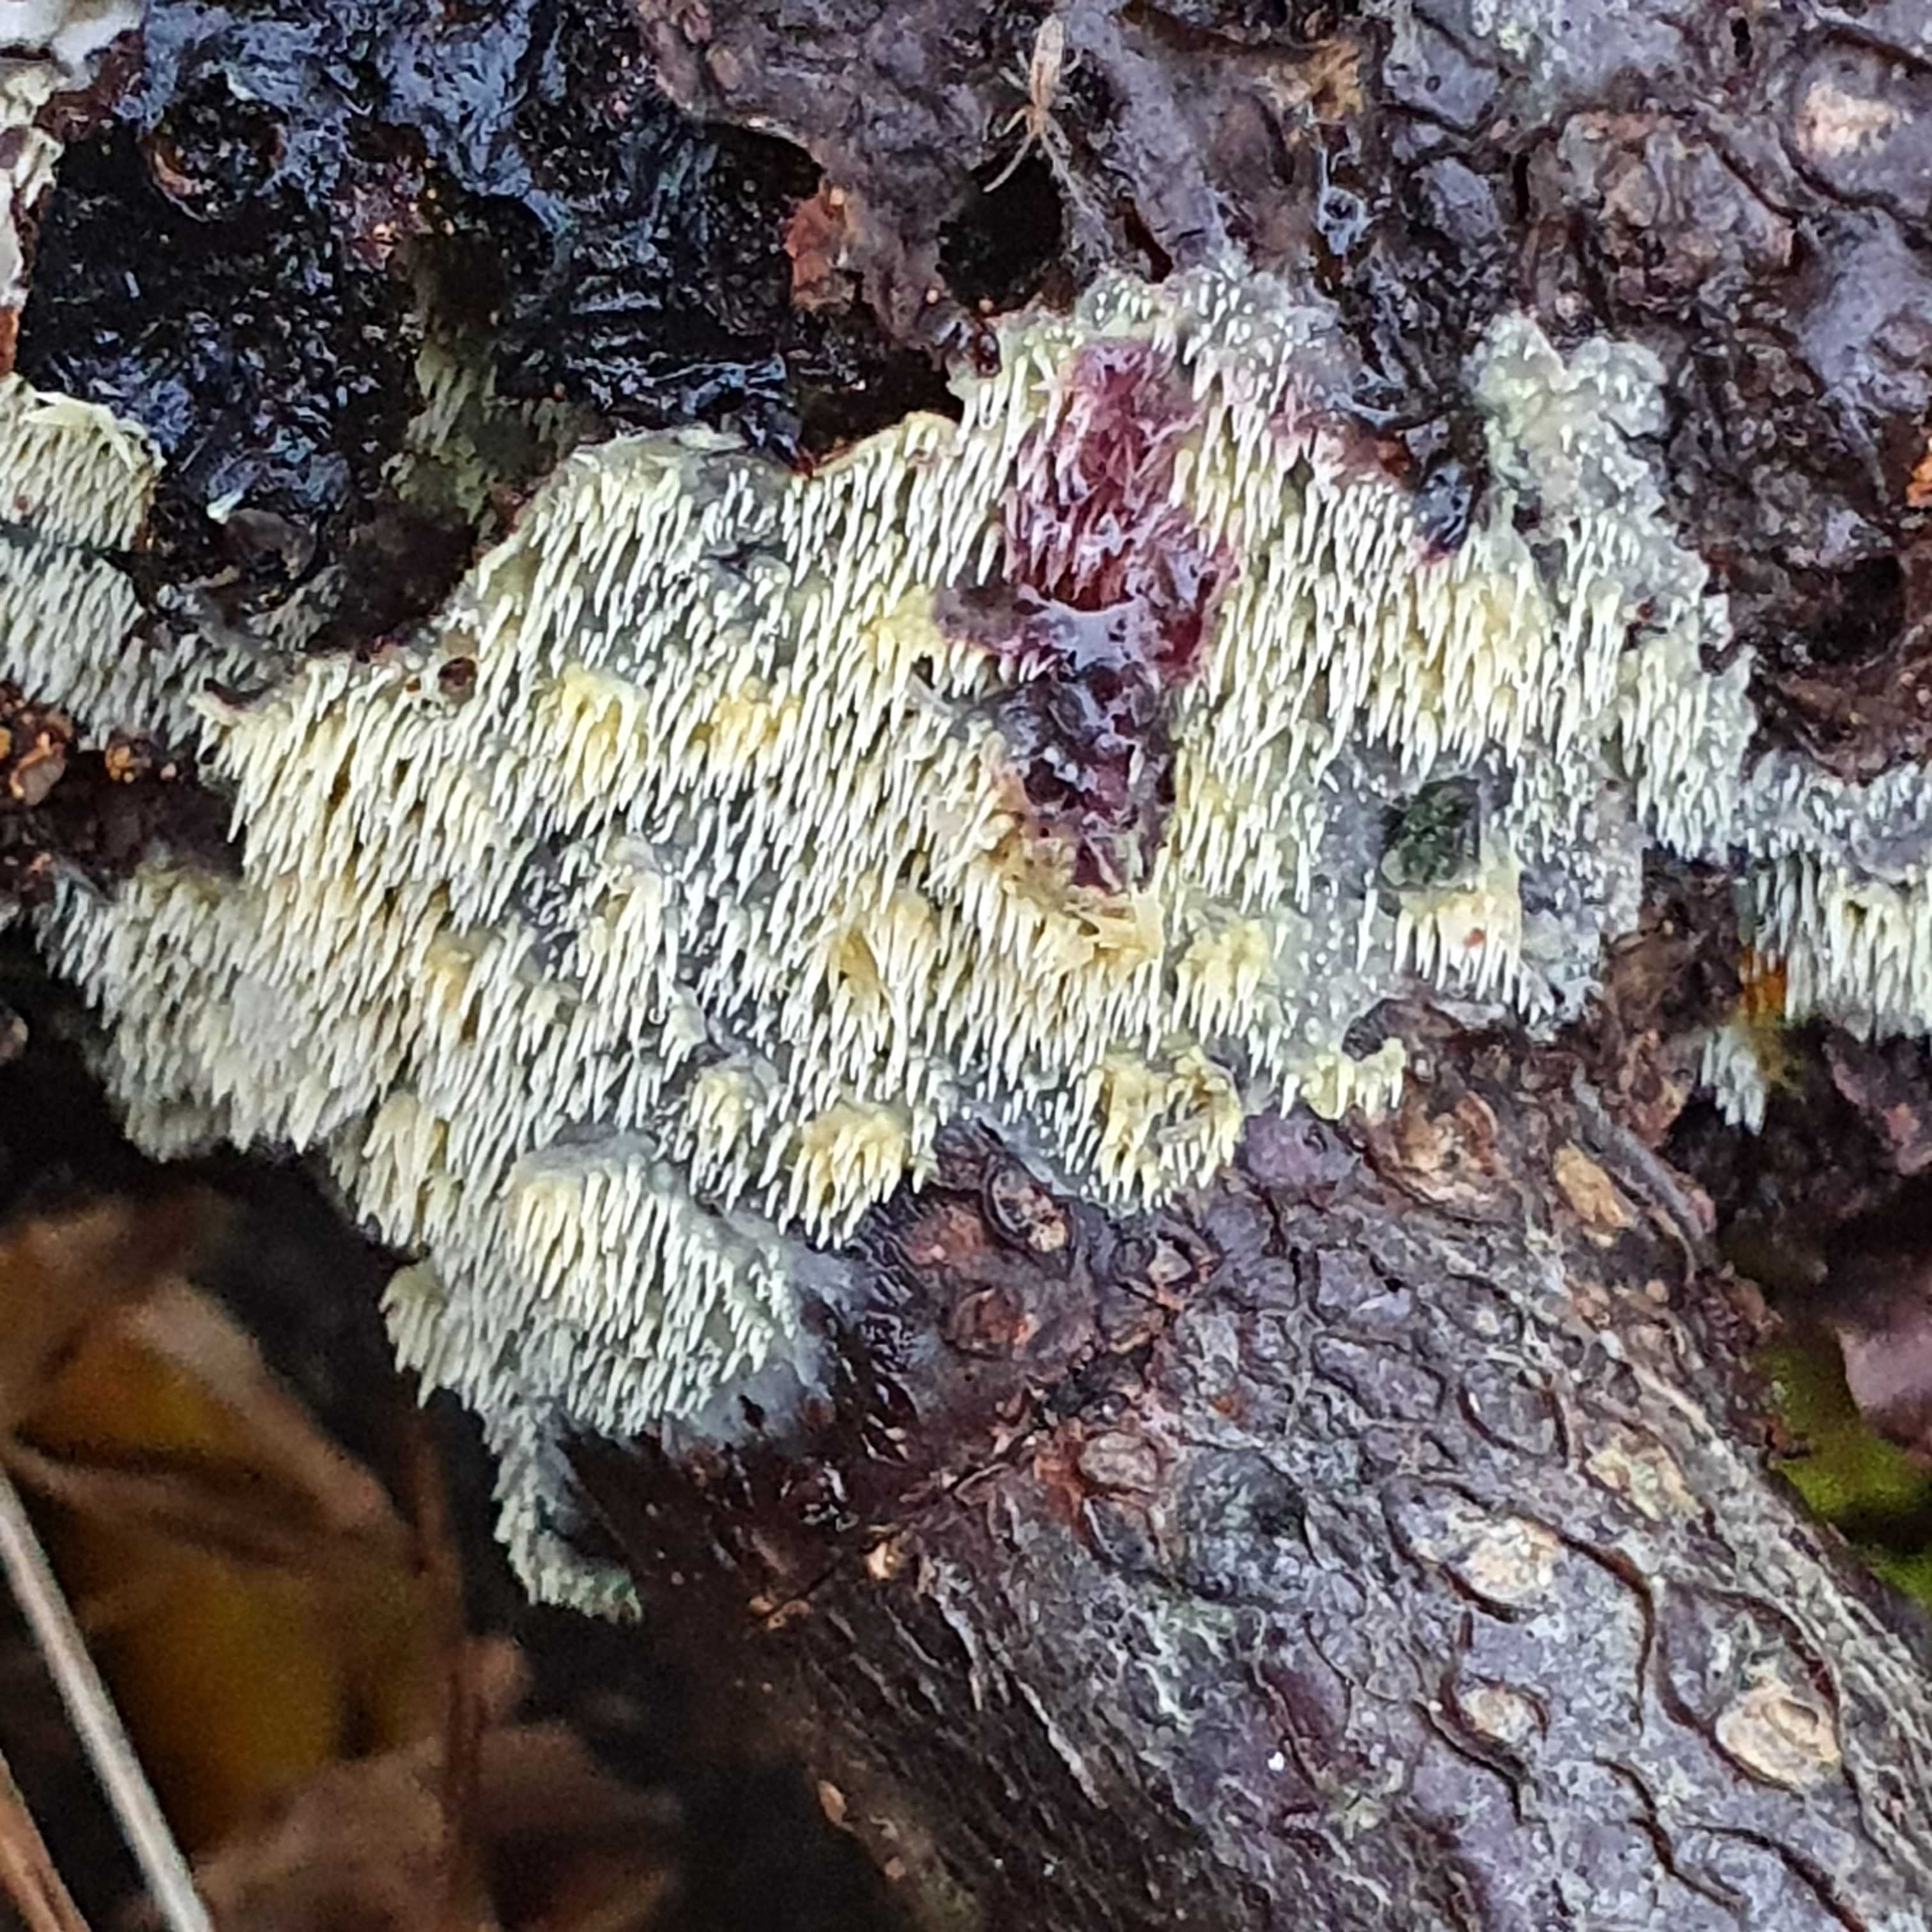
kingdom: Fungi
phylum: Basidiomycota
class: Agaricomycetes
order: Polyporales
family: Meruliaceae
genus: Mycoacia
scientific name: Mycoacia uda
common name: citrongul vokspig
